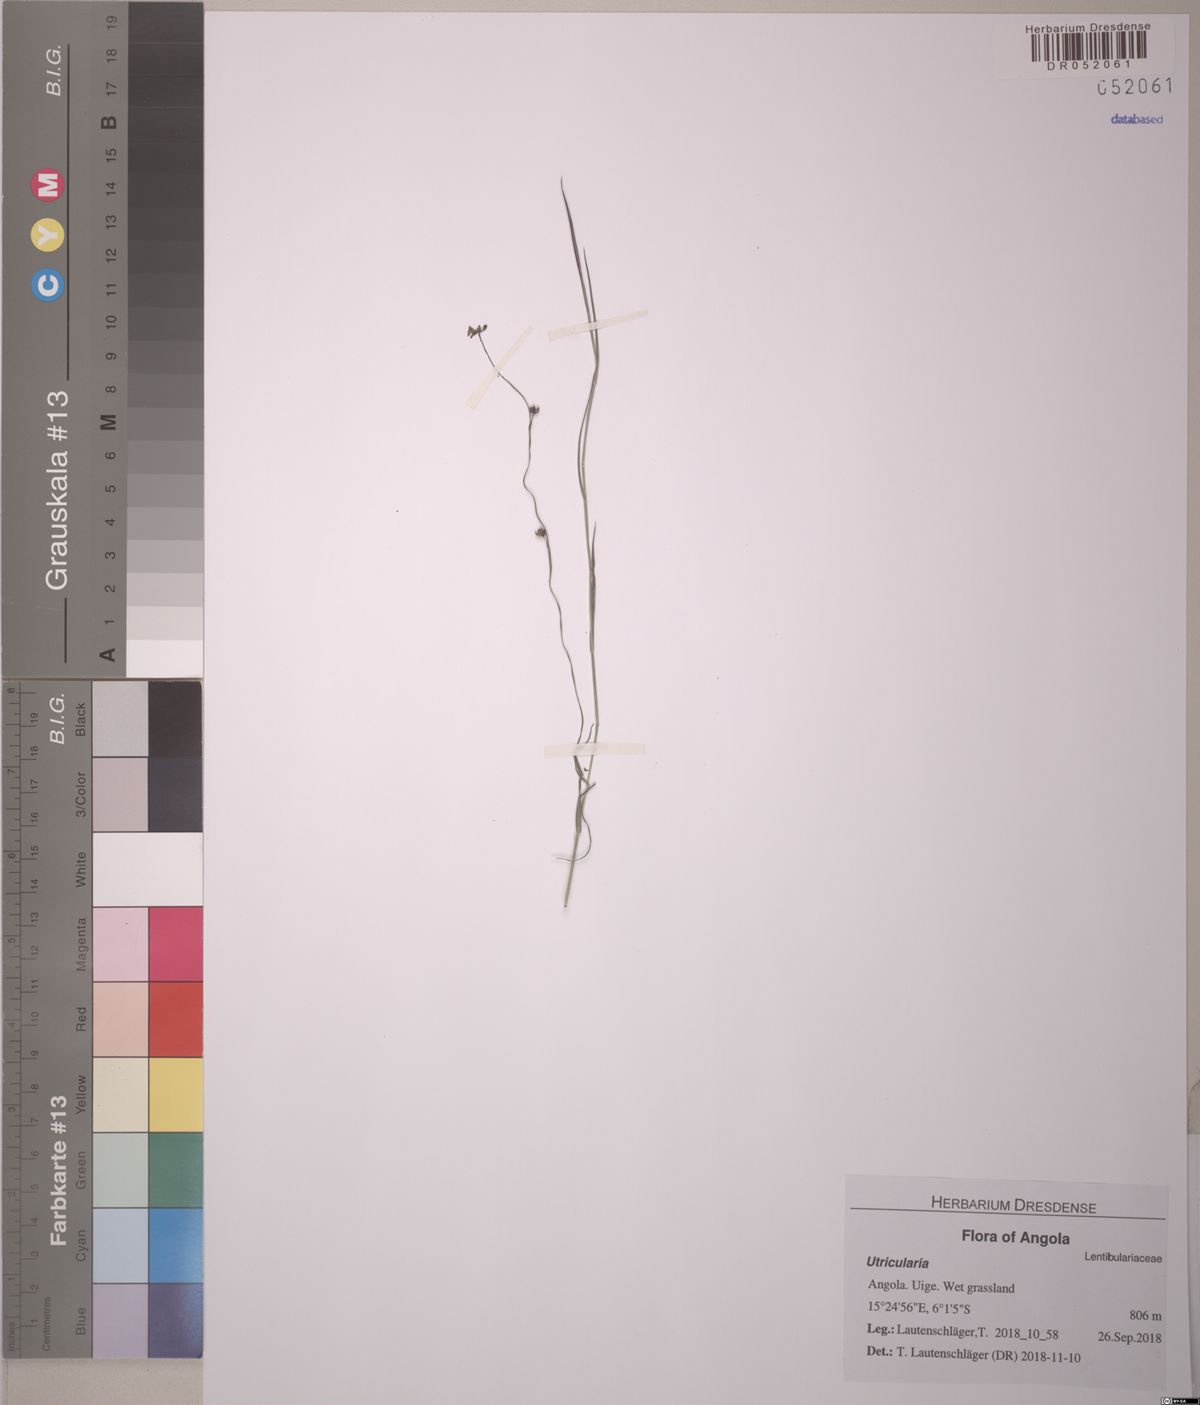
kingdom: Plantae
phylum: Tracheophyta
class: Magnoliopsida
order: Lamiales
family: Lentibulariaceae
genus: Utricularia
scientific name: Utricularia andongensis
